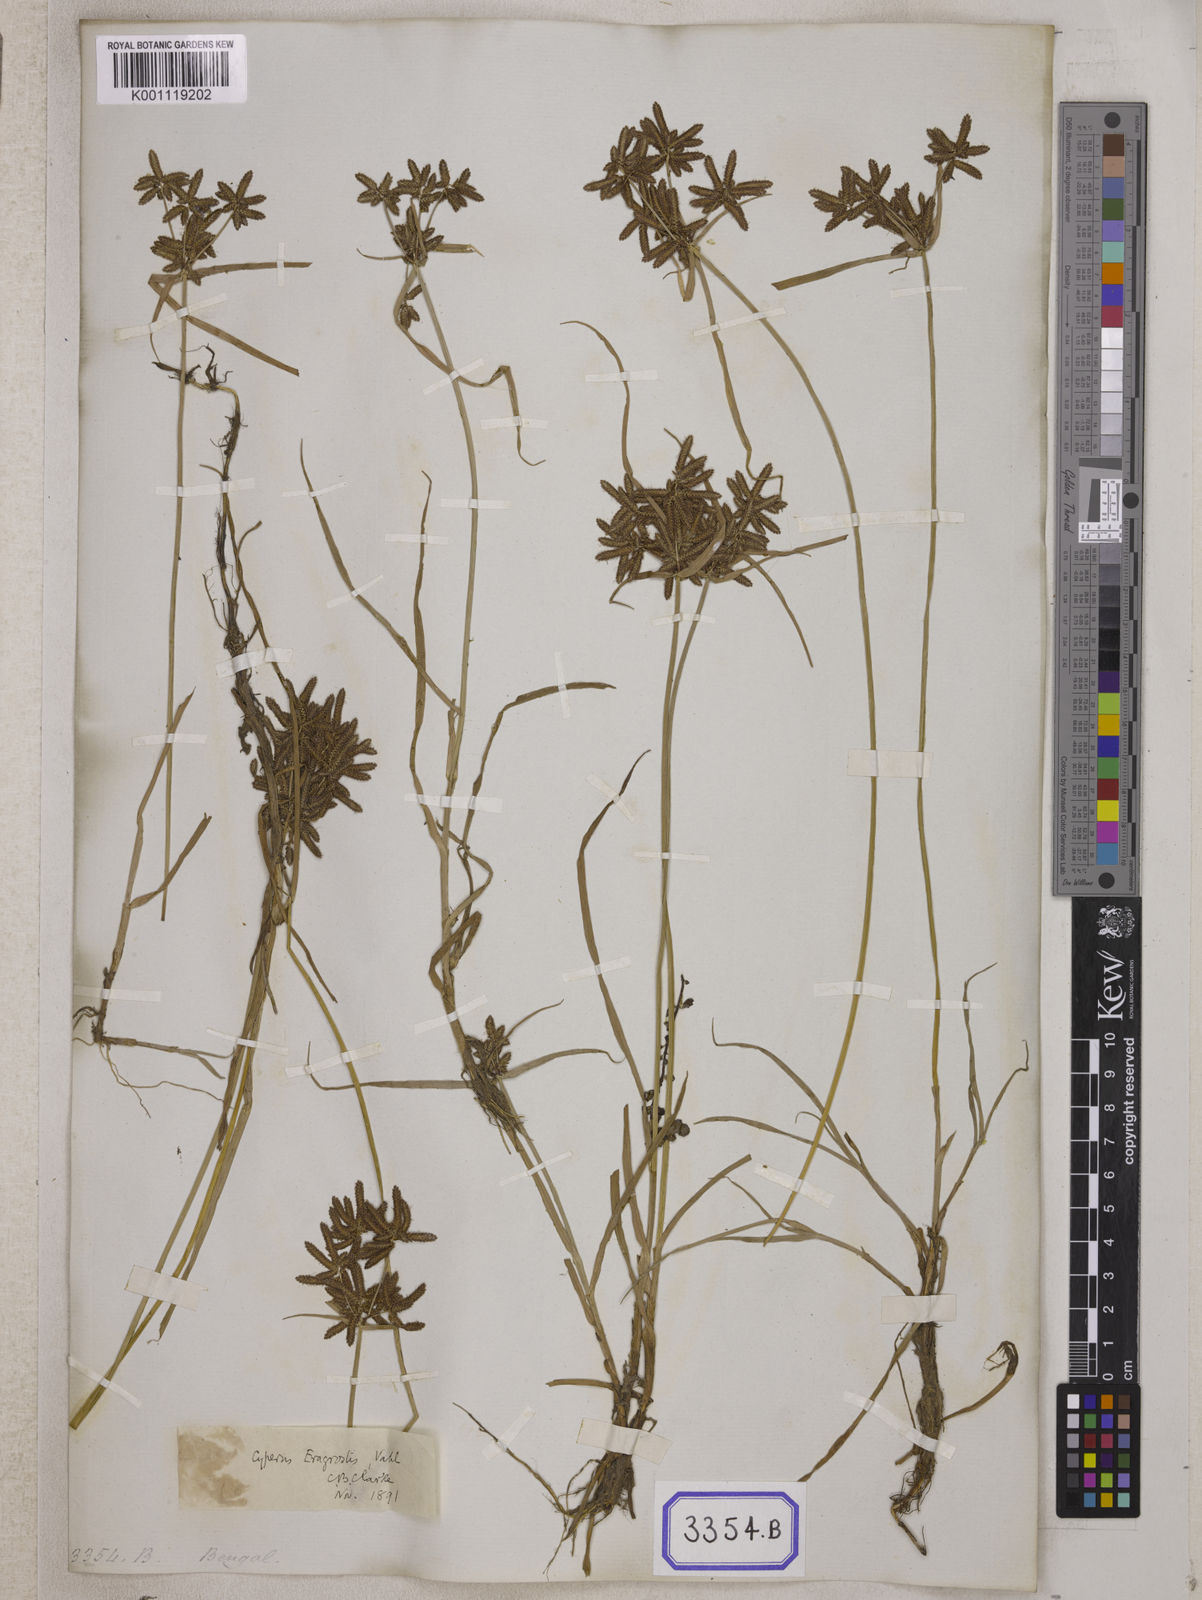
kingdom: Plantae
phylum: Tracheophyta
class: Liliopsida
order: Poales
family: Cyperaceae
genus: Cyperus
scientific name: Cyperus
